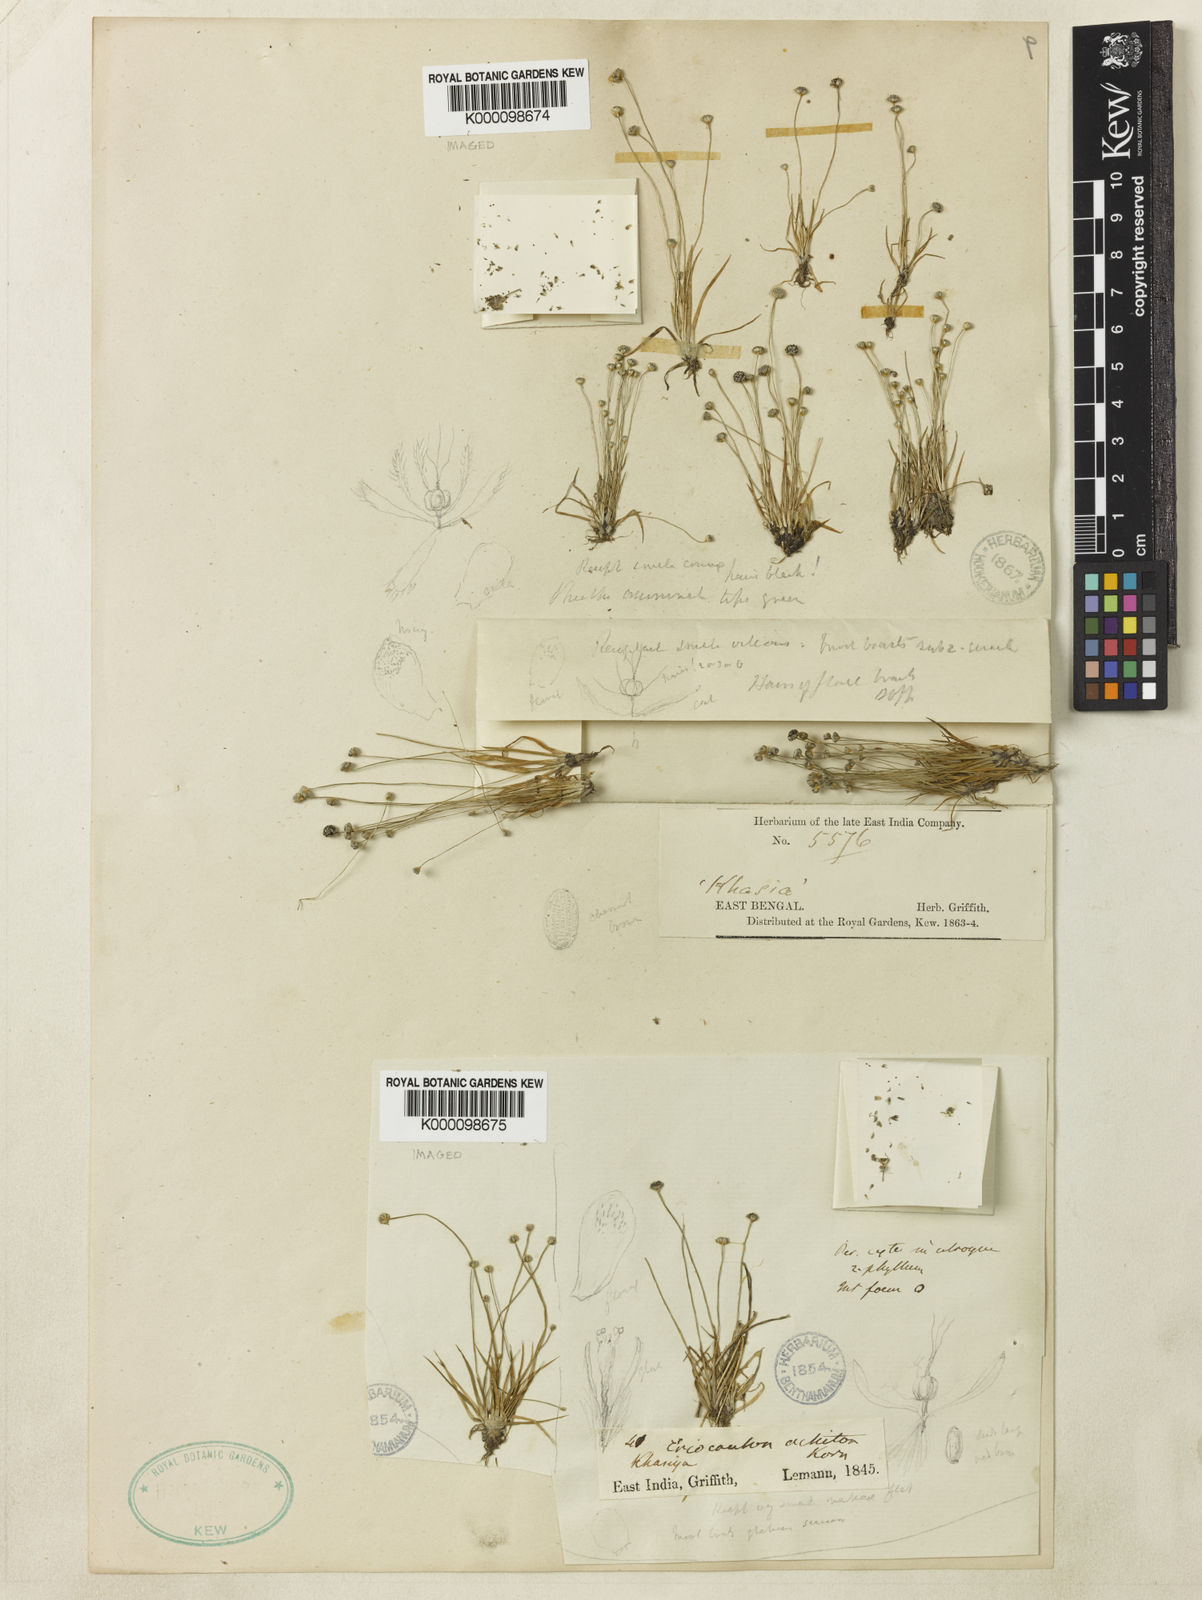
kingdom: Plantae
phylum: Tracheophyta
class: Liliopsida
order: Poales
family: Eriocaulaceae
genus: Eriocaulon
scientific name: Eriocaulon
